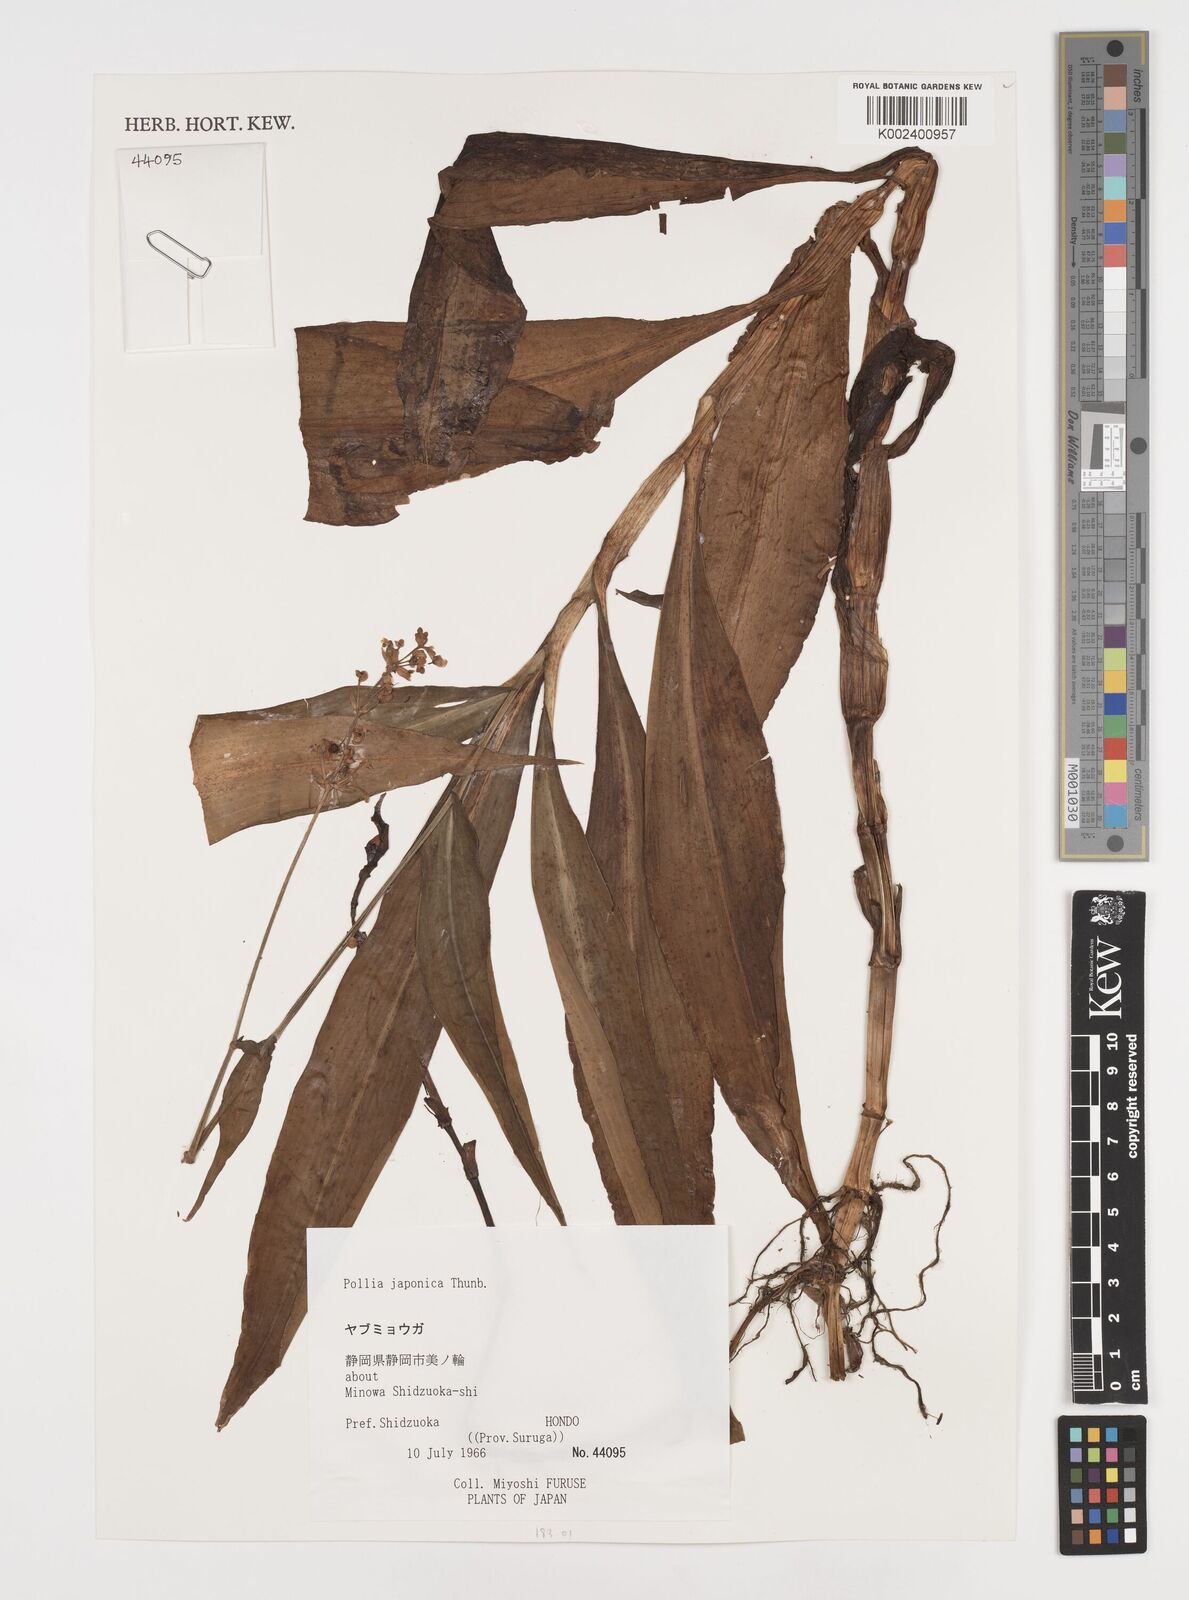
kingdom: Plantae
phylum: Tracheophyta
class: Liliopsida
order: Commelinales
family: Commelinaceae
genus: Pollia
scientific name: Pollia japonica
